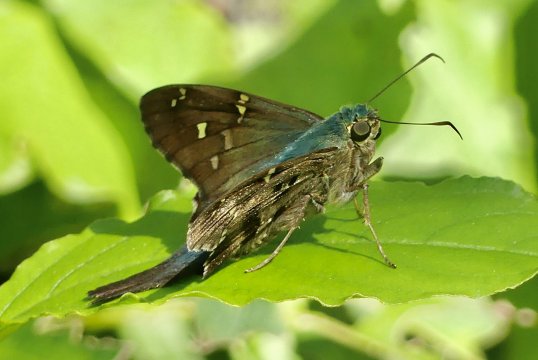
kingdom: Animalia
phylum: Arthropoda
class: Insecta
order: Lepidoptera
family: Hesperiidae
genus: Urbanus
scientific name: Urbanus proteus
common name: Long-tailed Skipper
